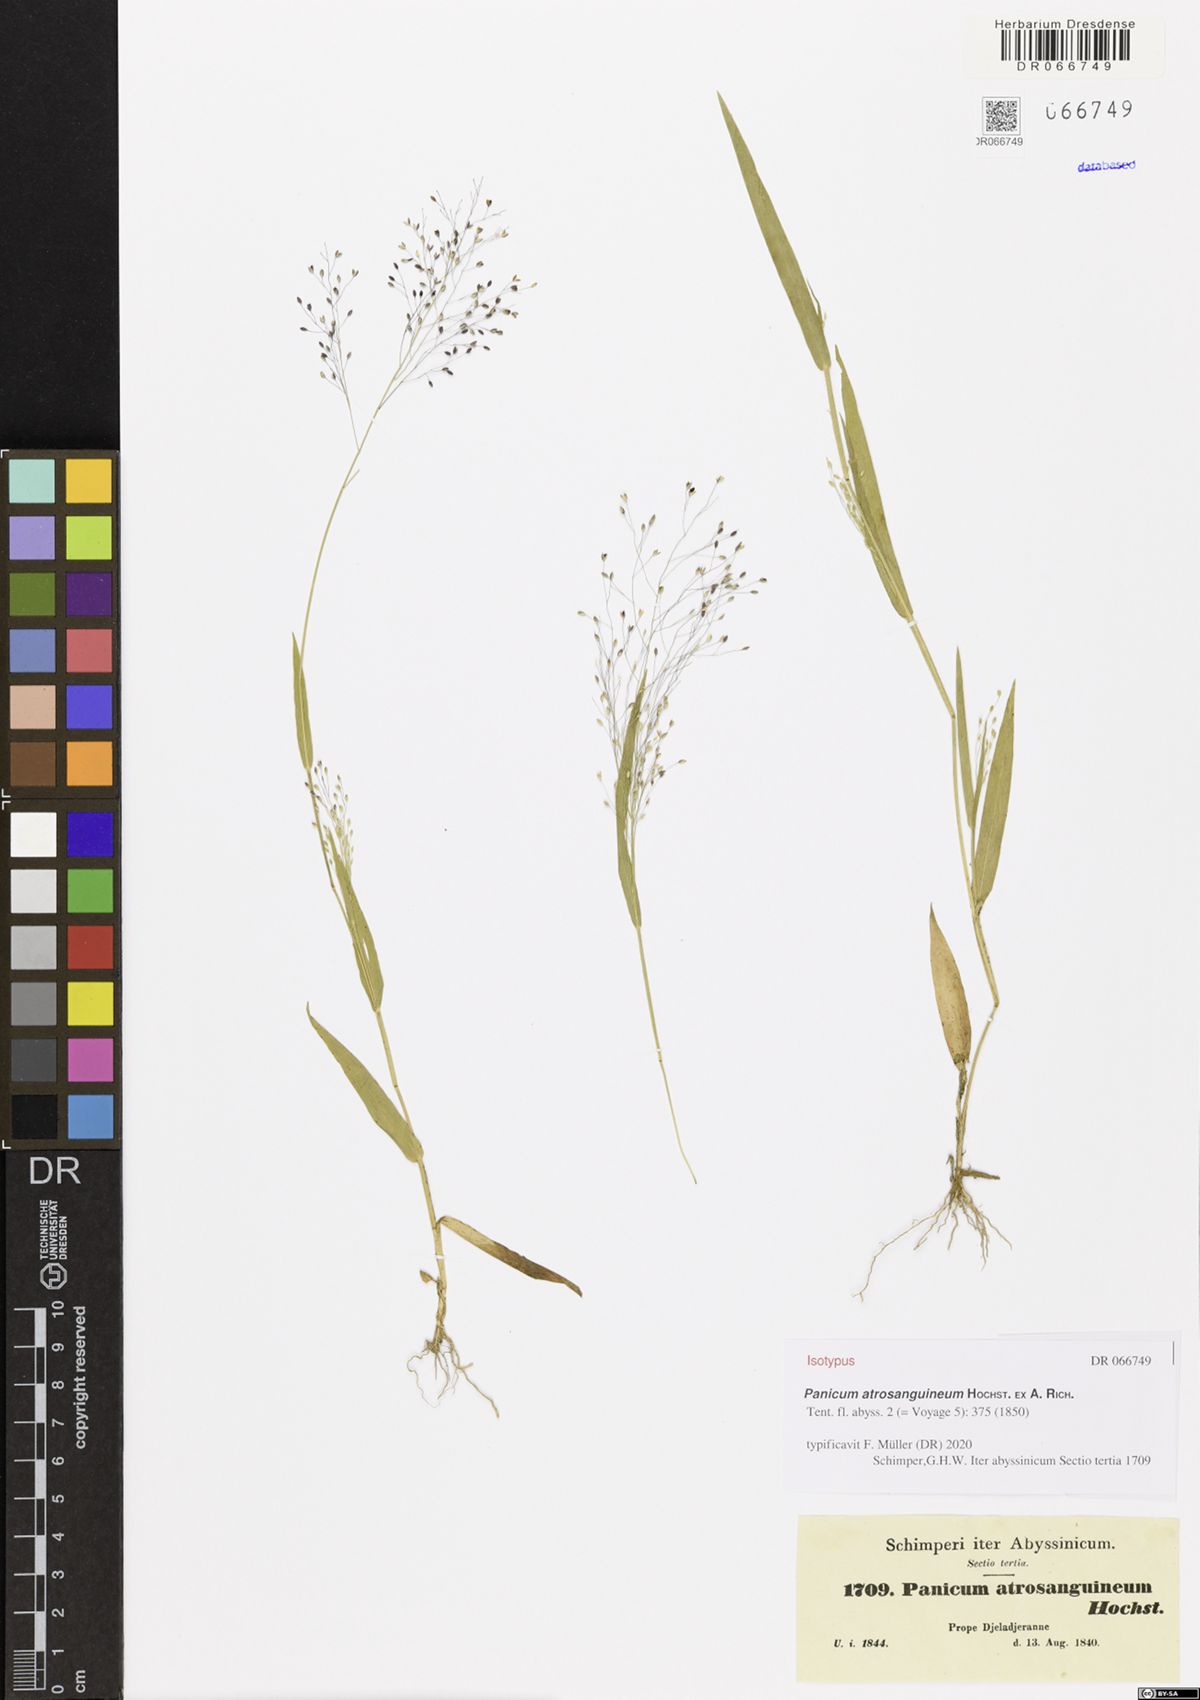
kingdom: Plantae
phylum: Tracheophyta
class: Liliopsida
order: Poales
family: Poaceae
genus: Panicum
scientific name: Panicum atrosanguineum
